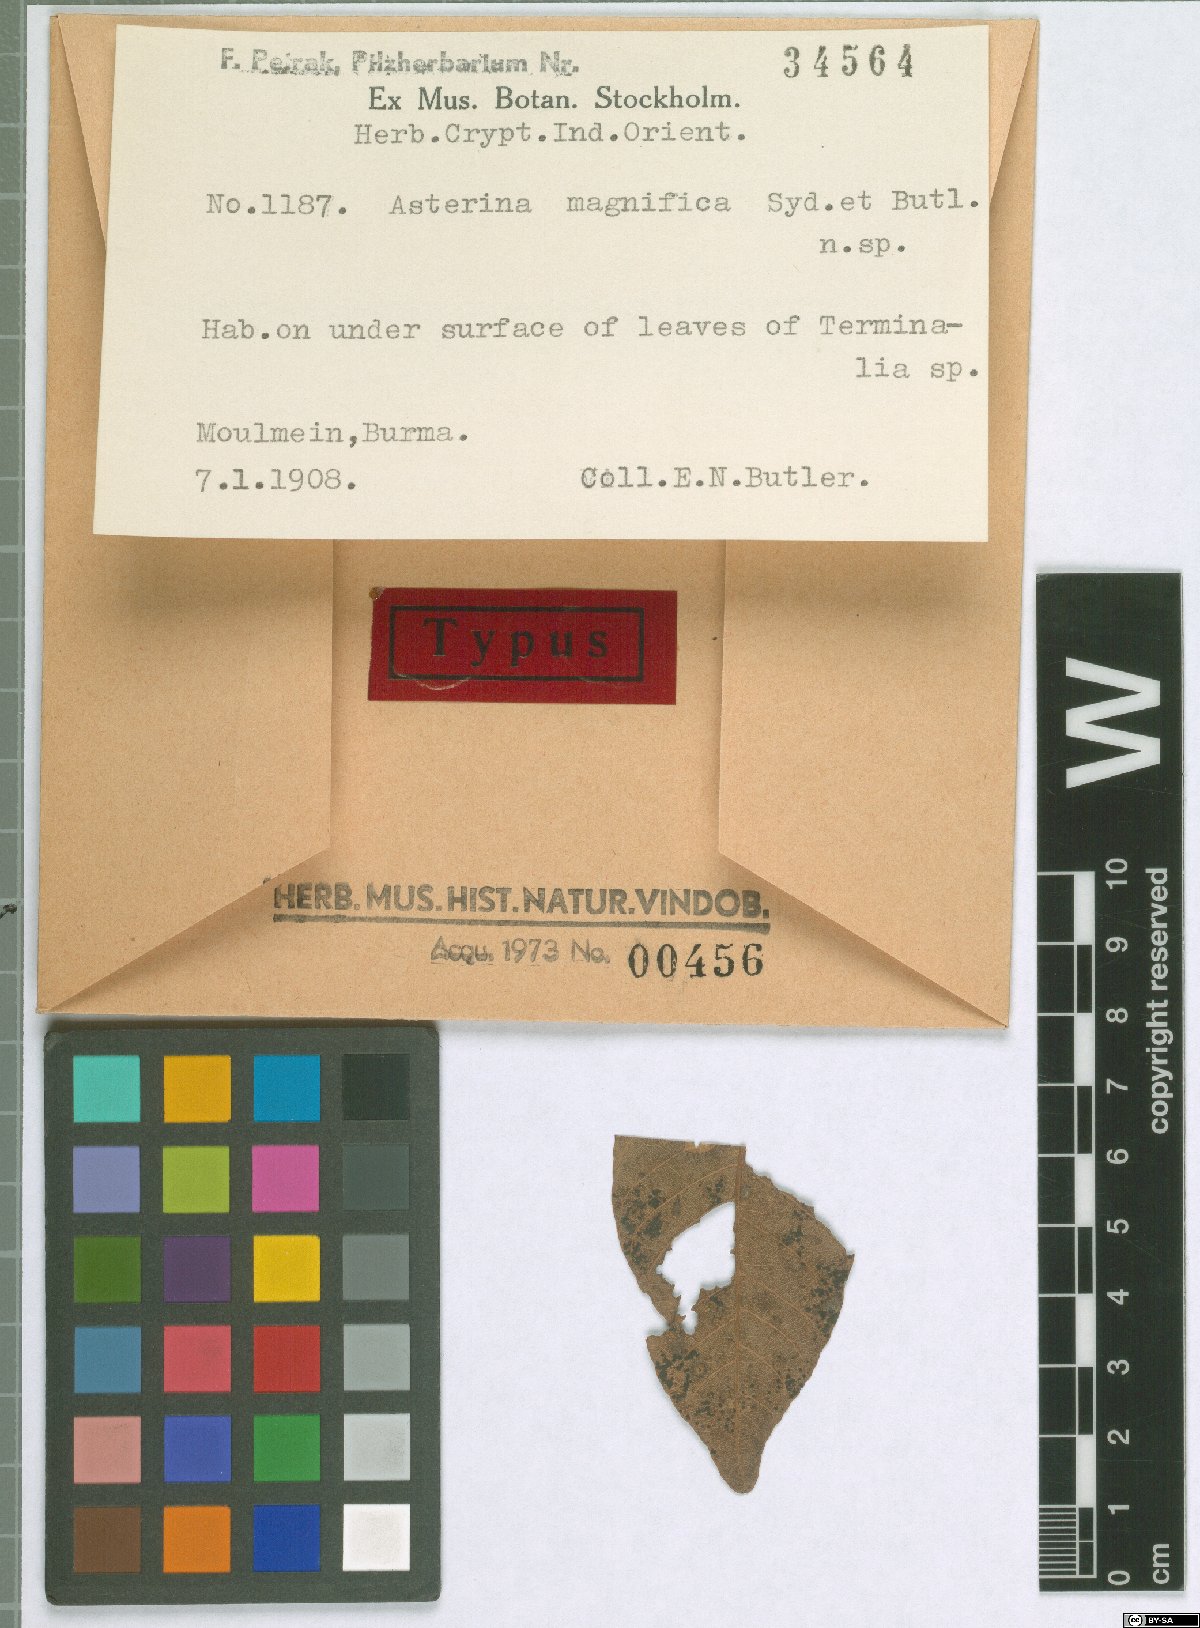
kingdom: Fungi
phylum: Ascomycota
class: Dothideomycetes
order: Asterinales
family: Asterinaceae
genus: Pycnocarpon
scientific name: Pycnocarpon magnificum
